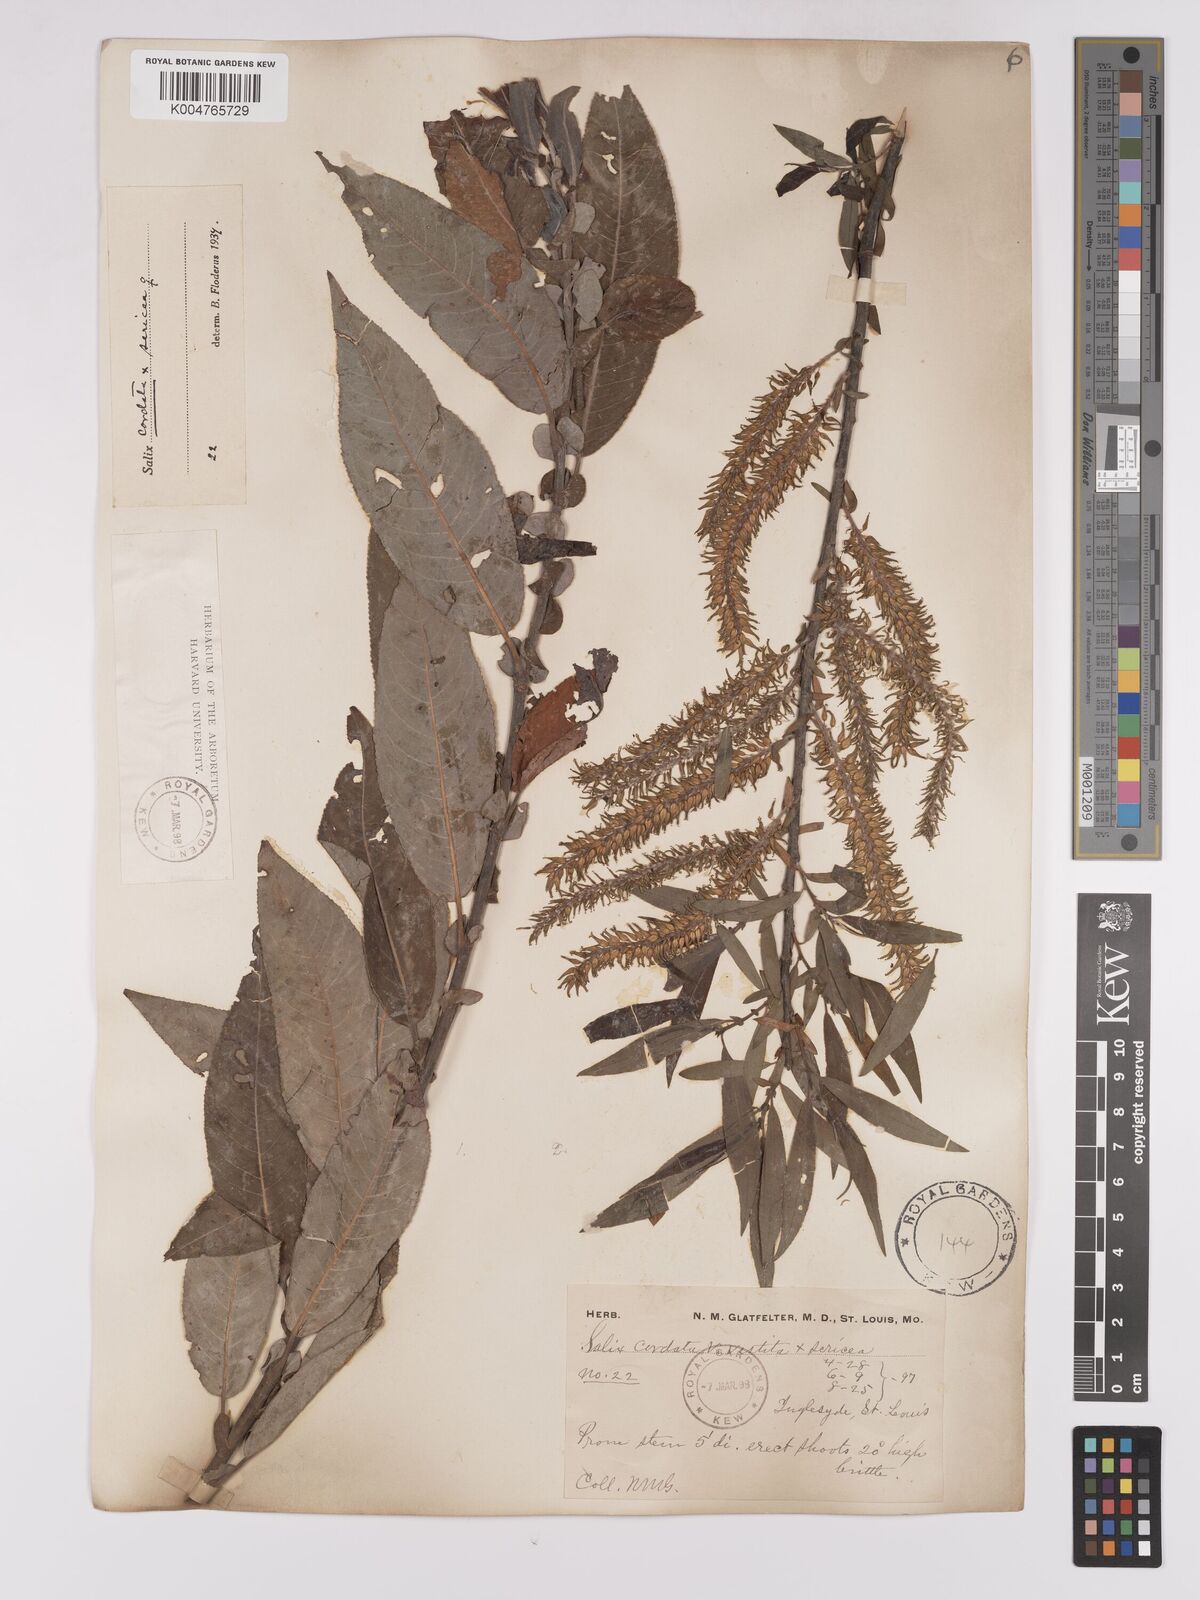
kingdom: Plantae
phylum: Tracheophyta
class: Magnoliopsida
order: Malpighiales
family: Salicaceae
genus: Salix
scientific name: Salix
